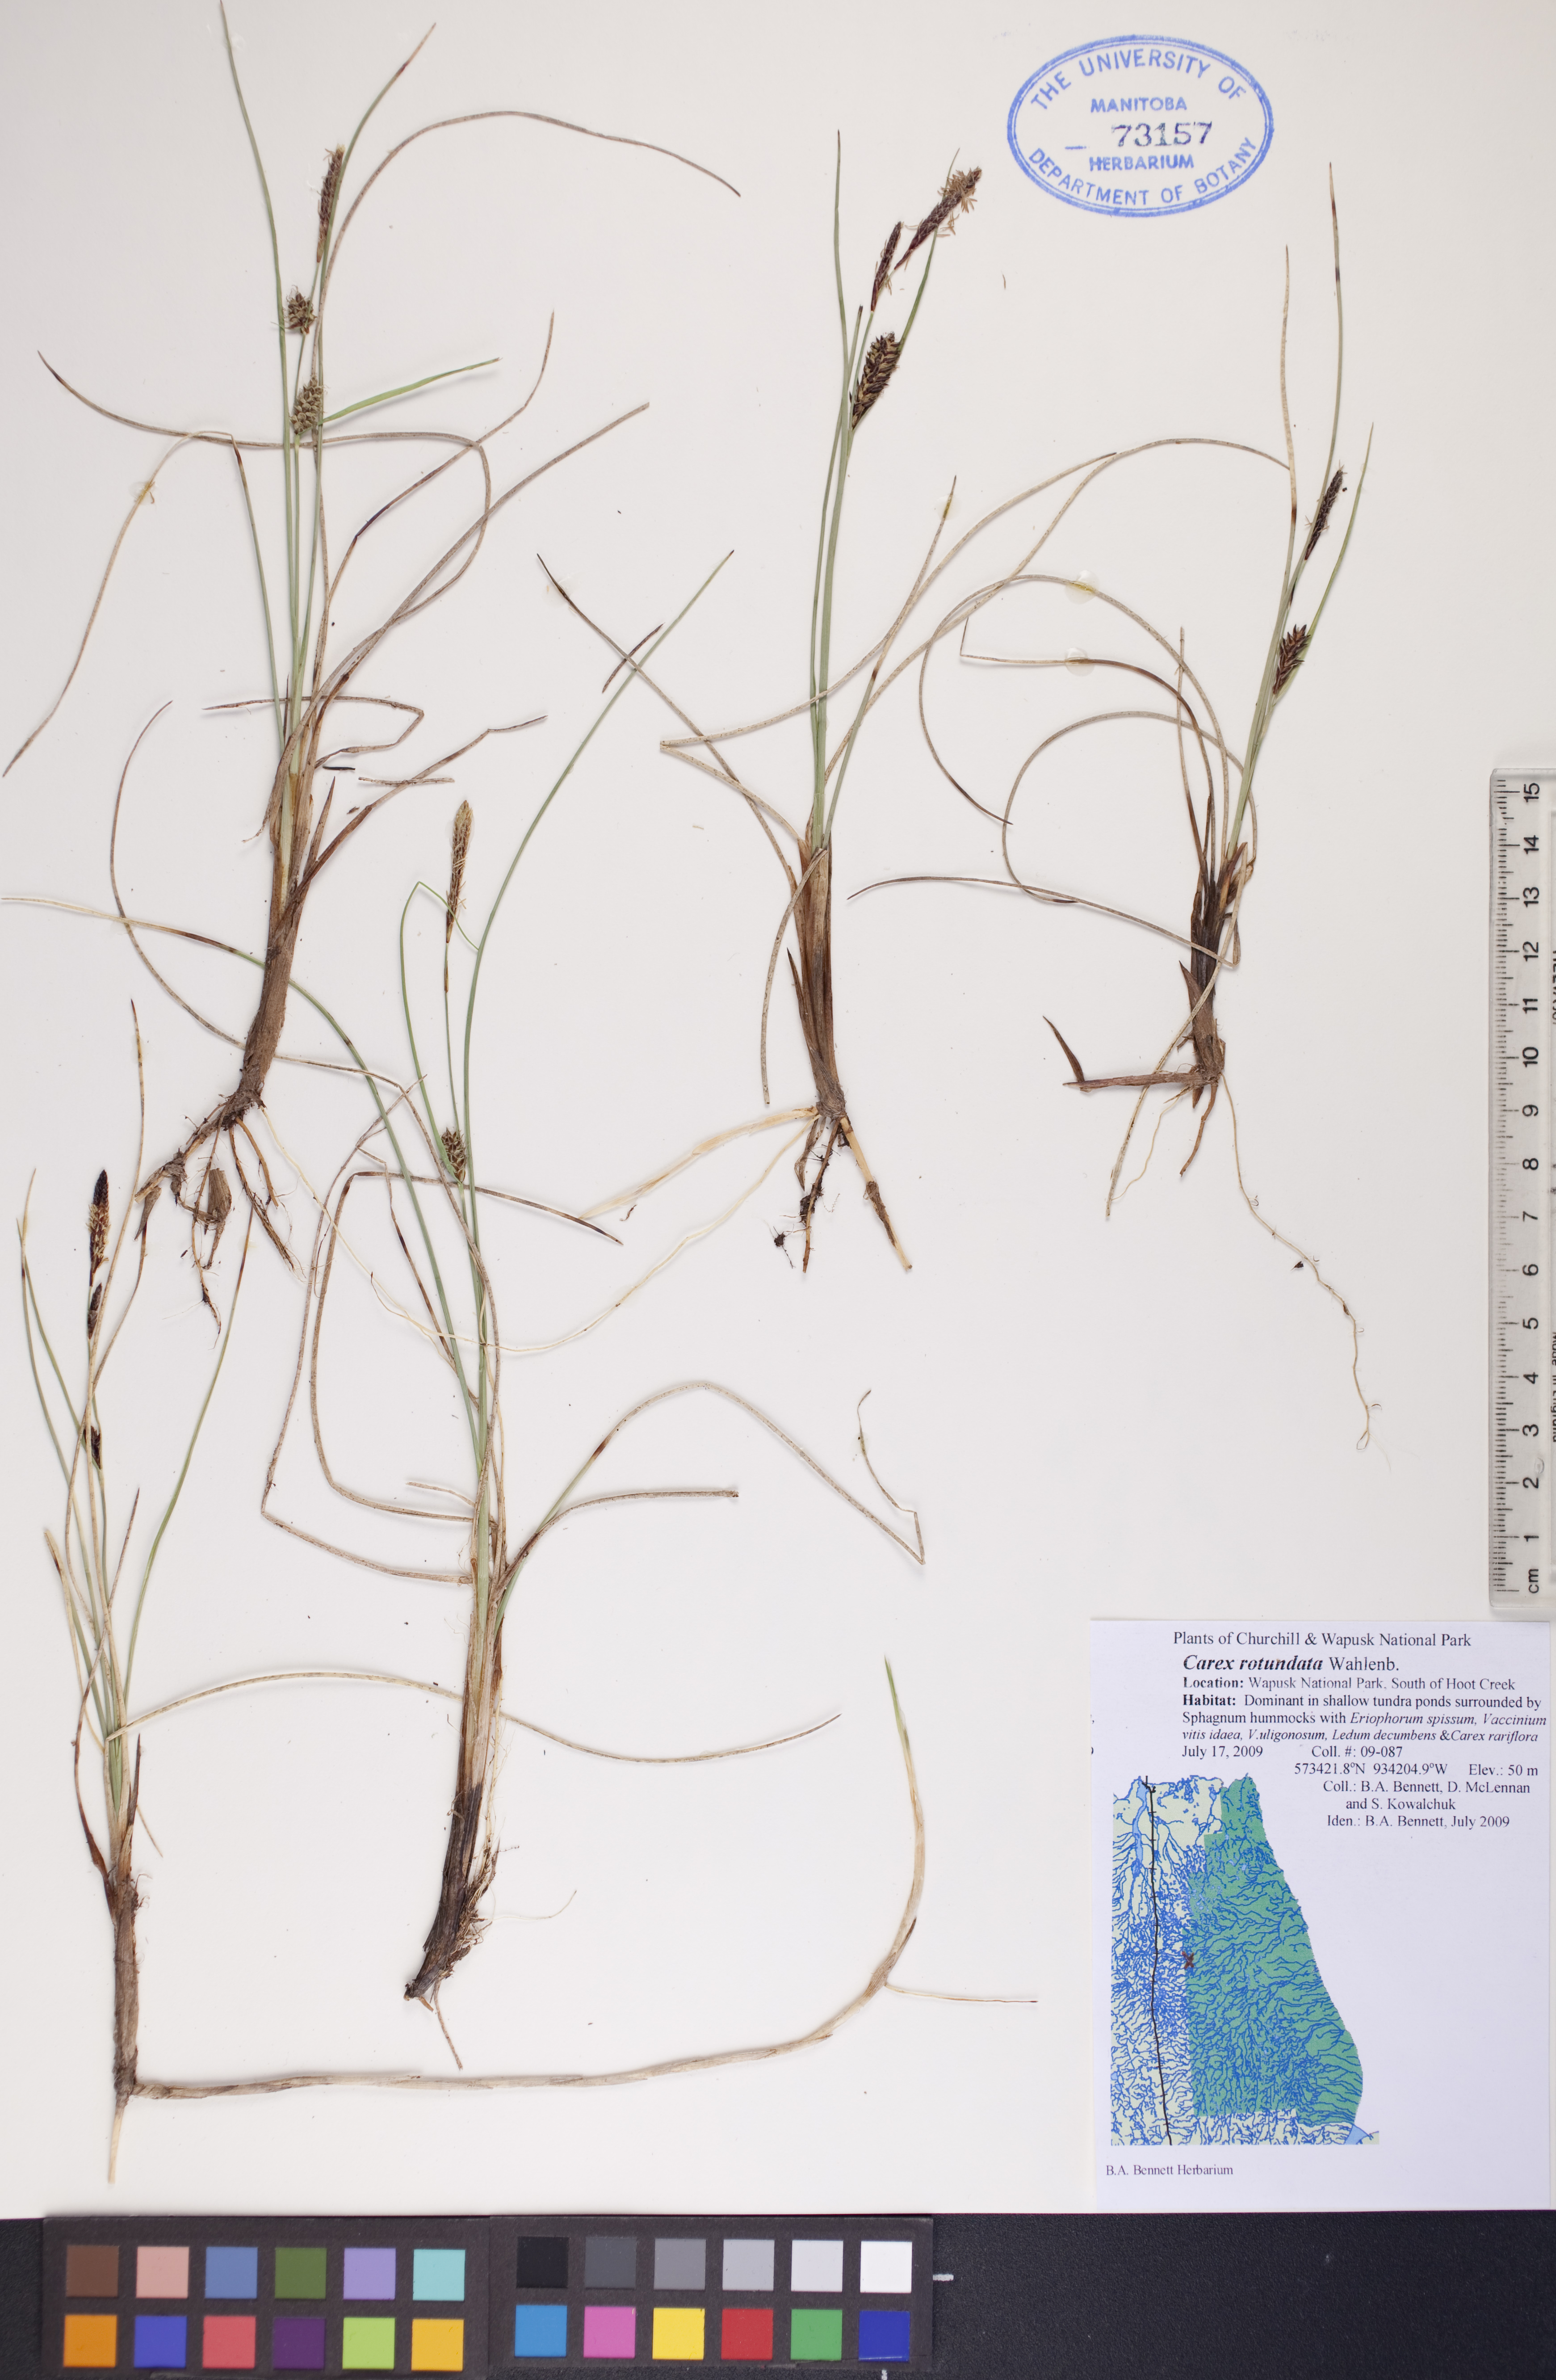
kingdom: Plantae
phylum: Tracheophyta
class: Liliopsida
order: Poales
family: Cyperaceae
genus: Carex
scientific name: Carex rotundata
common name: Round-fruited sedge
